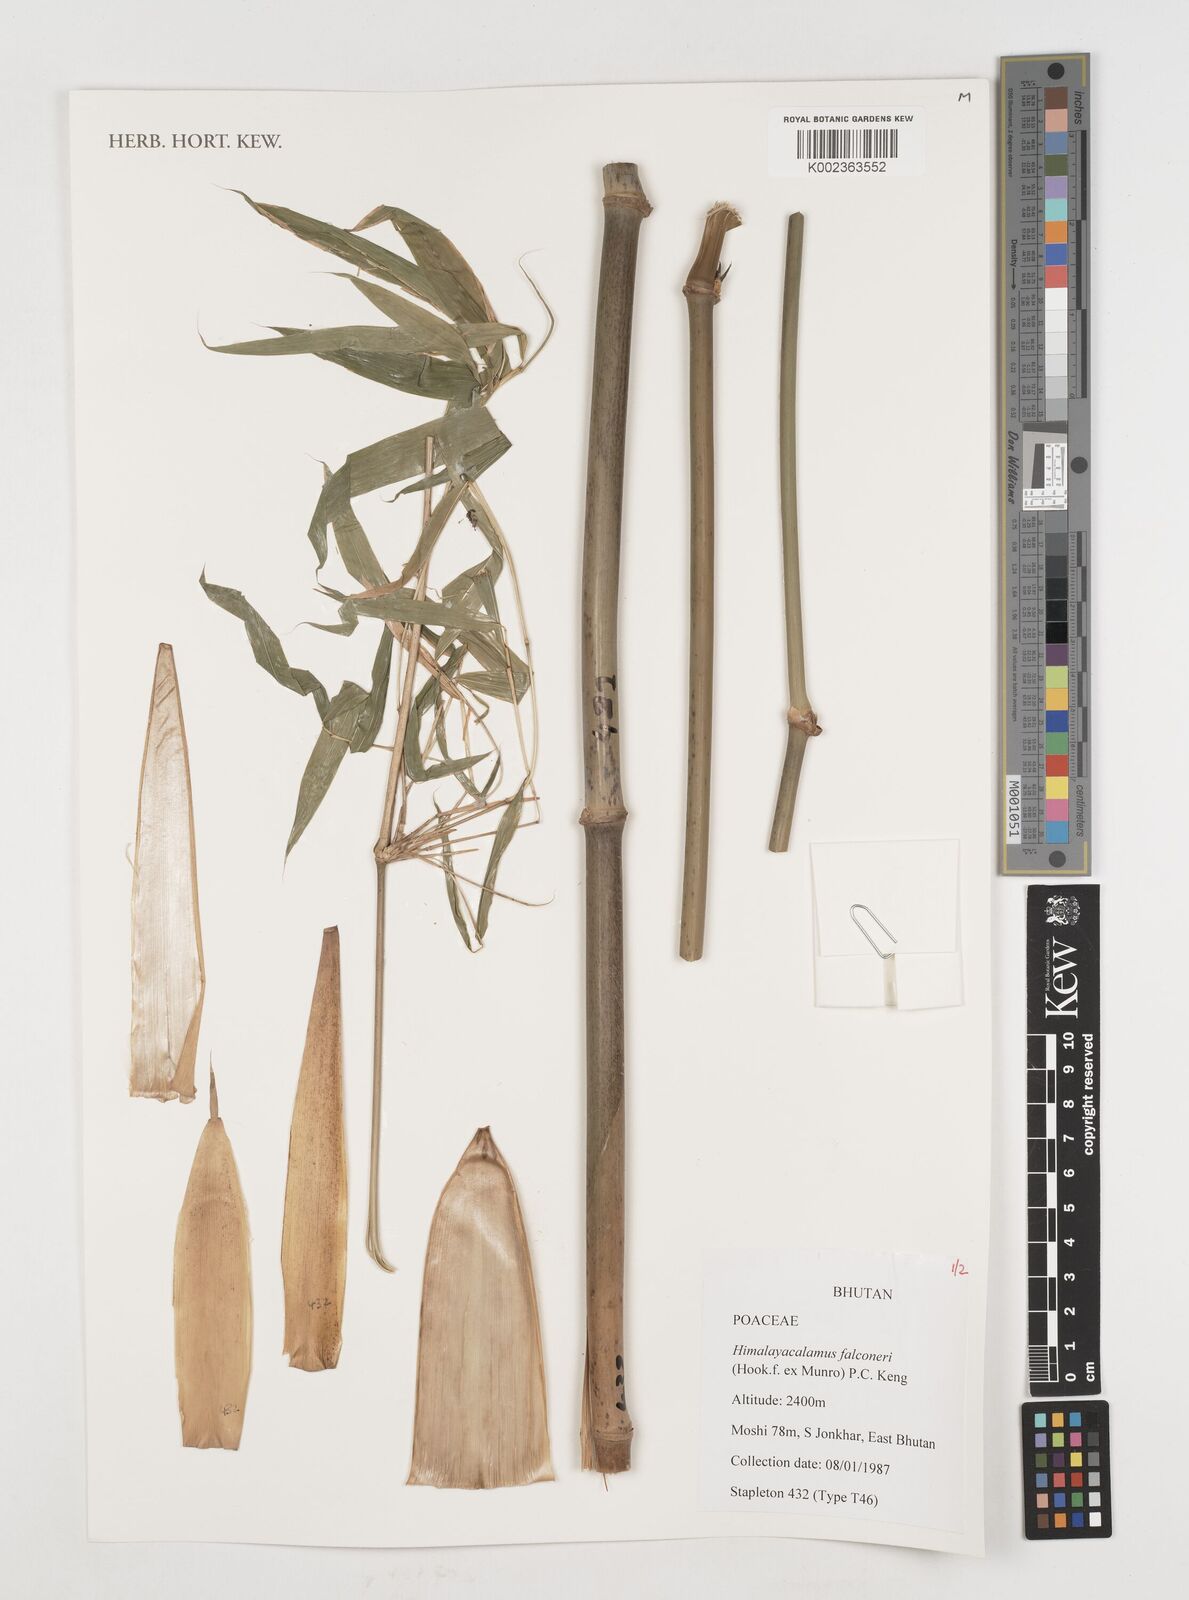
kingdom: Plantae
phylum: Tracheophyta
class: Liliopsida
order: Poales
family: Poaceae
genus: Himalayacalamus
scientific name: Himalayacalamus falconeri
